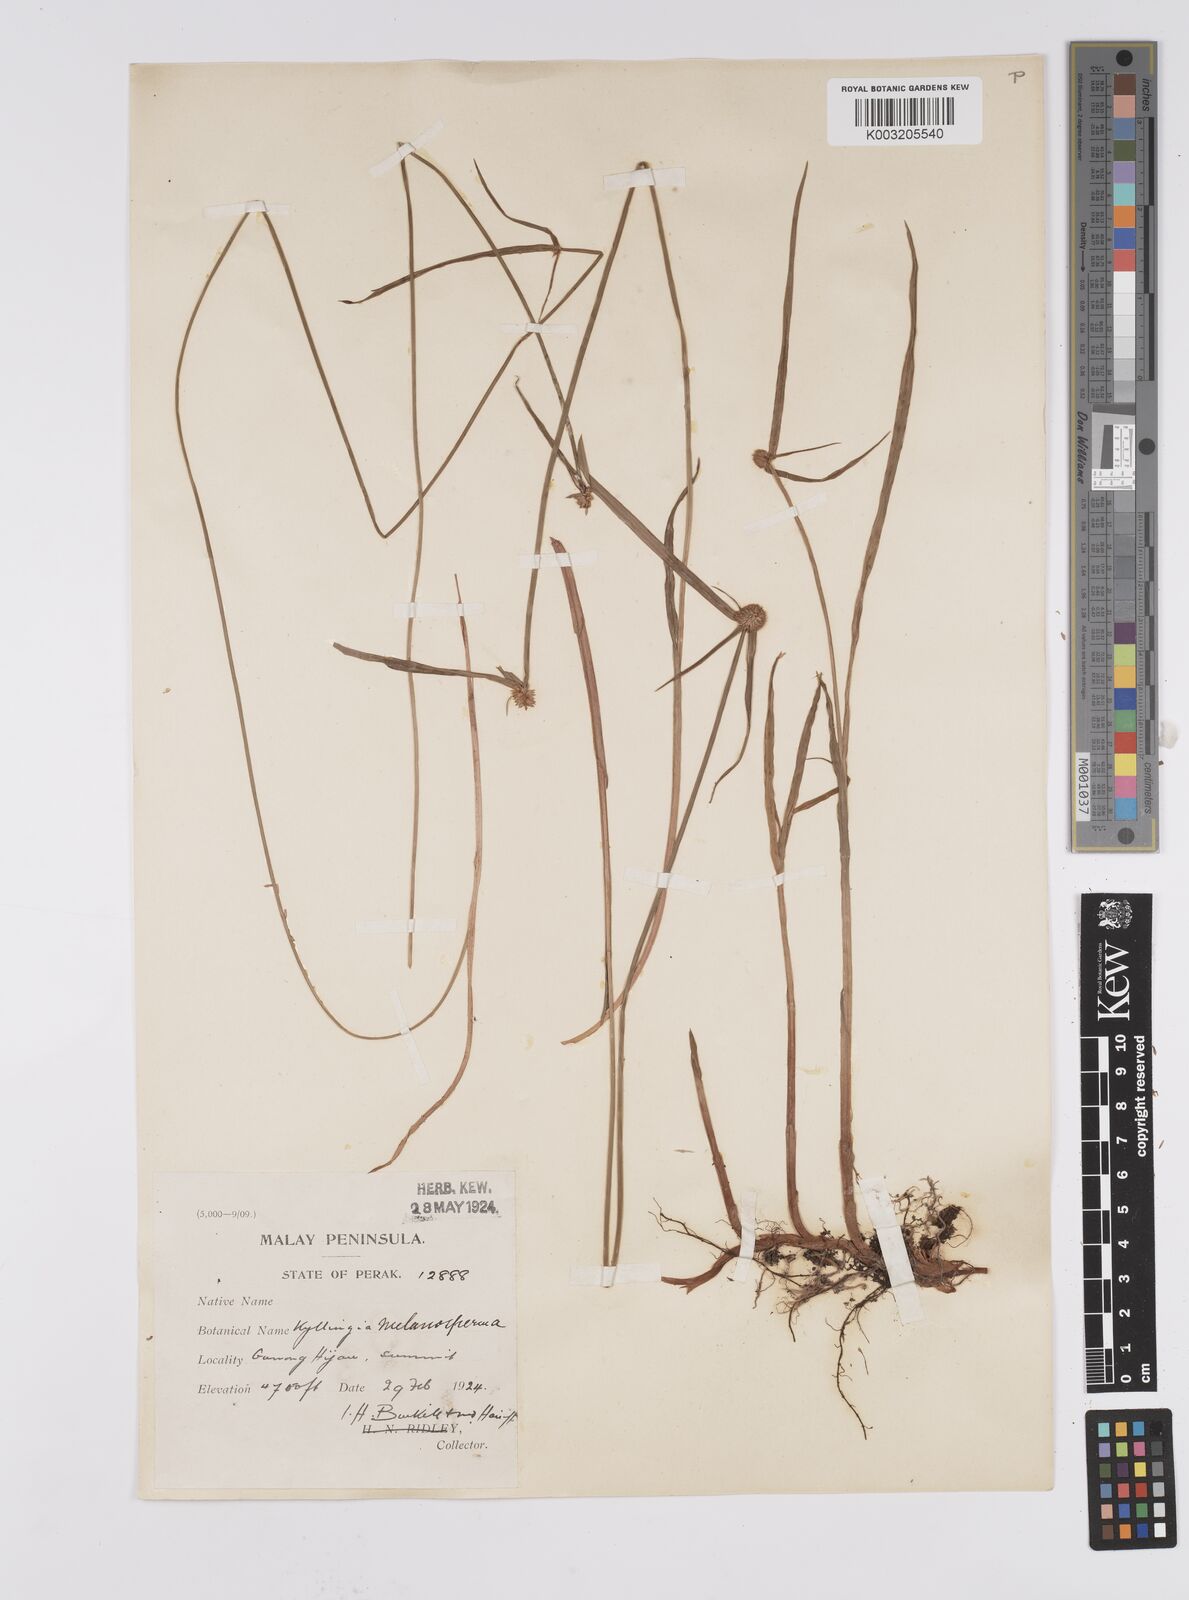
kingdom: Plantae
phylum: Tracheophyta
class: Liliopsida
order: Poales
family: Cyperaceae
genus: Cyperus
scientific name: Cyperus
